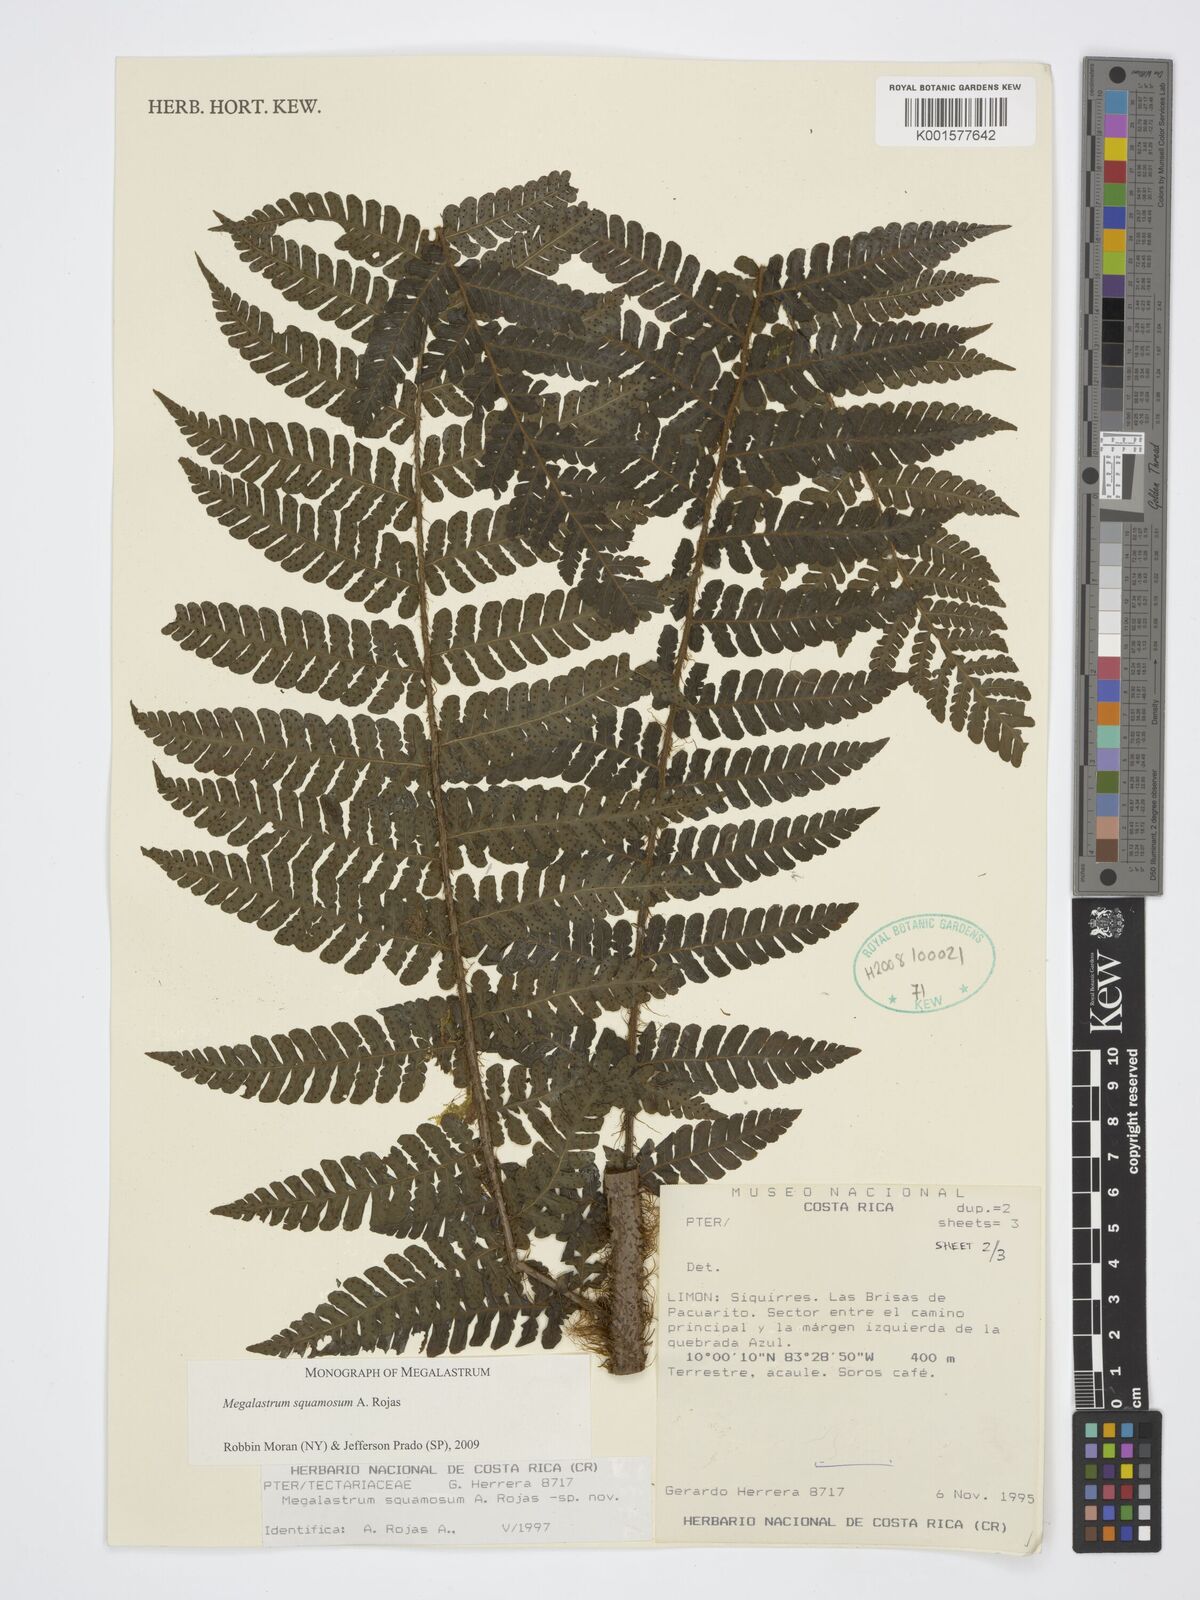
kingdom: Plantae
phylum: Tracheophyta
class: Polypodiopsida
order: Polypodiales
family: Dryopteridaceae
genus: Megalastrum
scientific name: Megalastrum squamosum
